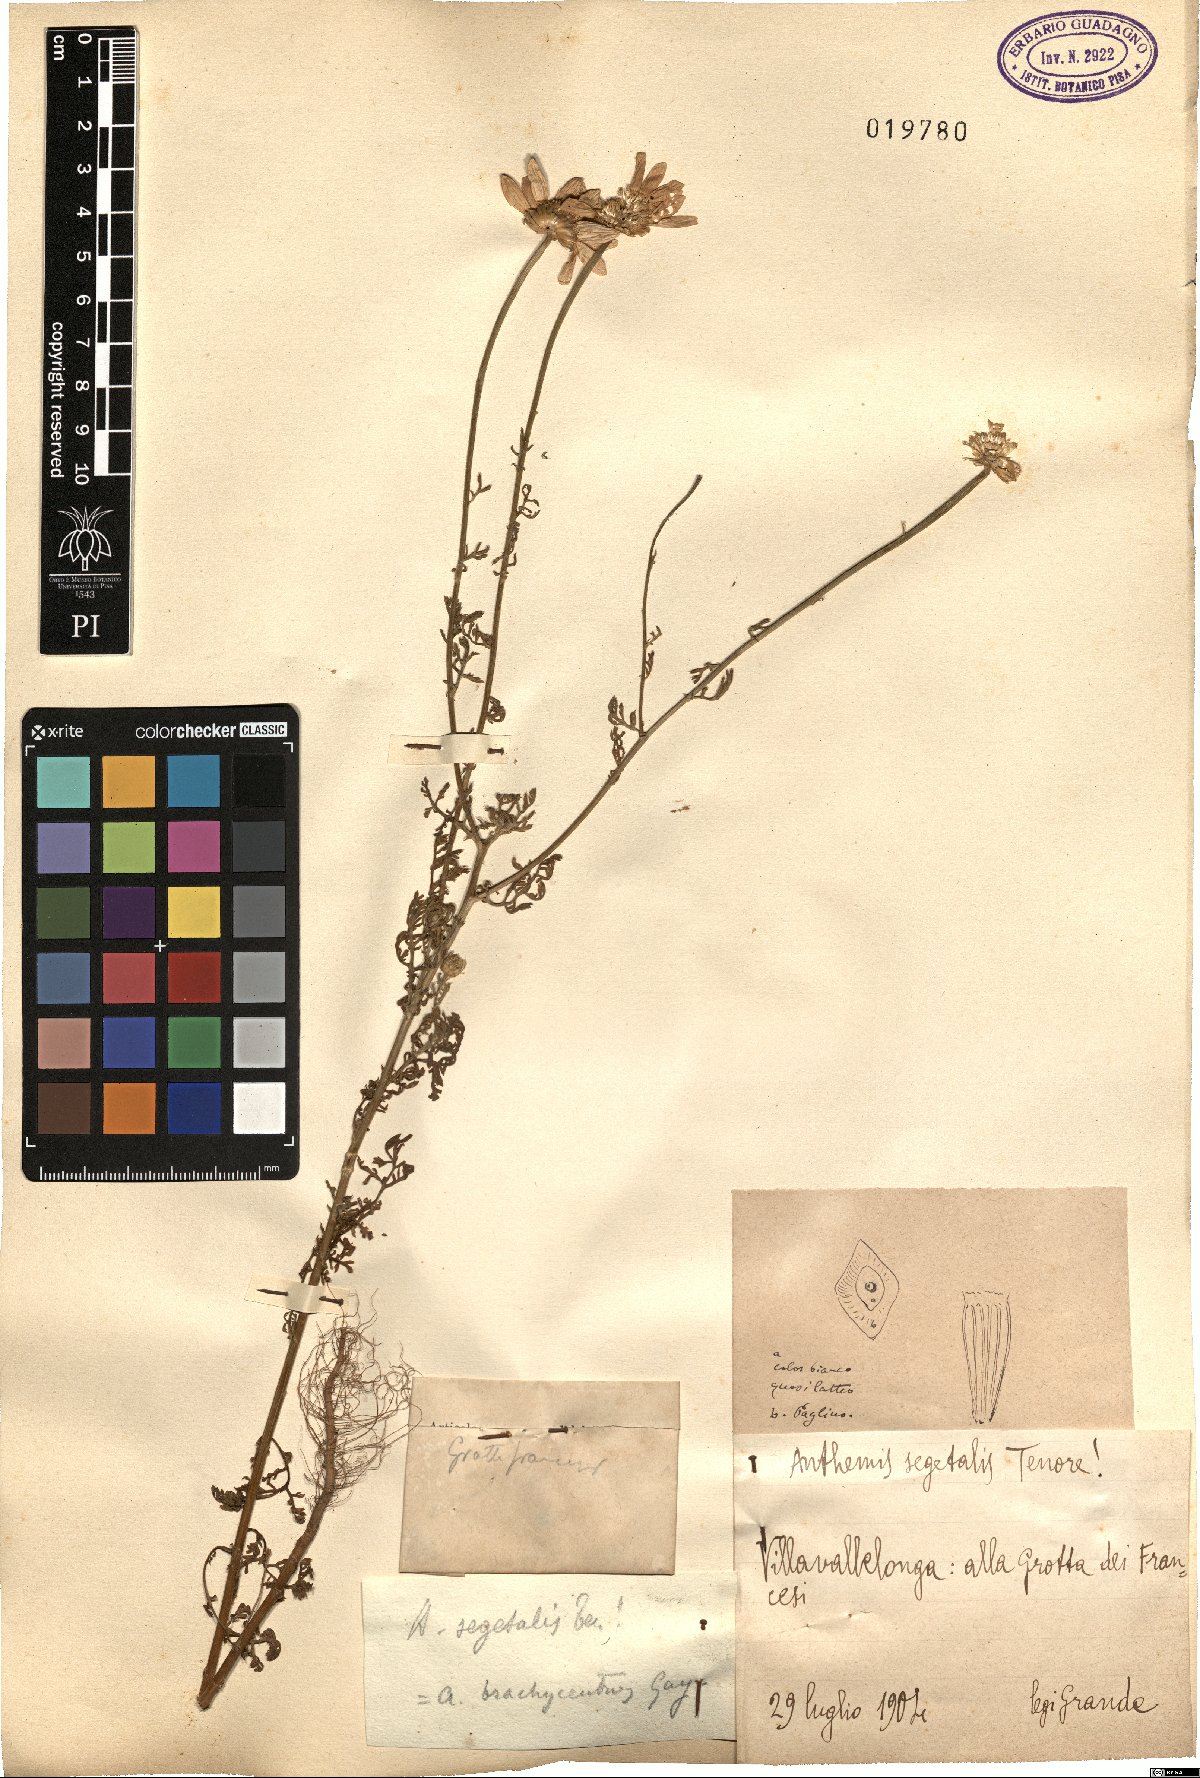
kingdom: Plantae
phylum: Tracheophyta
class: Magnoliopsida
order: Asterales
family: Asteraceae
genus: Cota
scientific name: Cota segetalis
